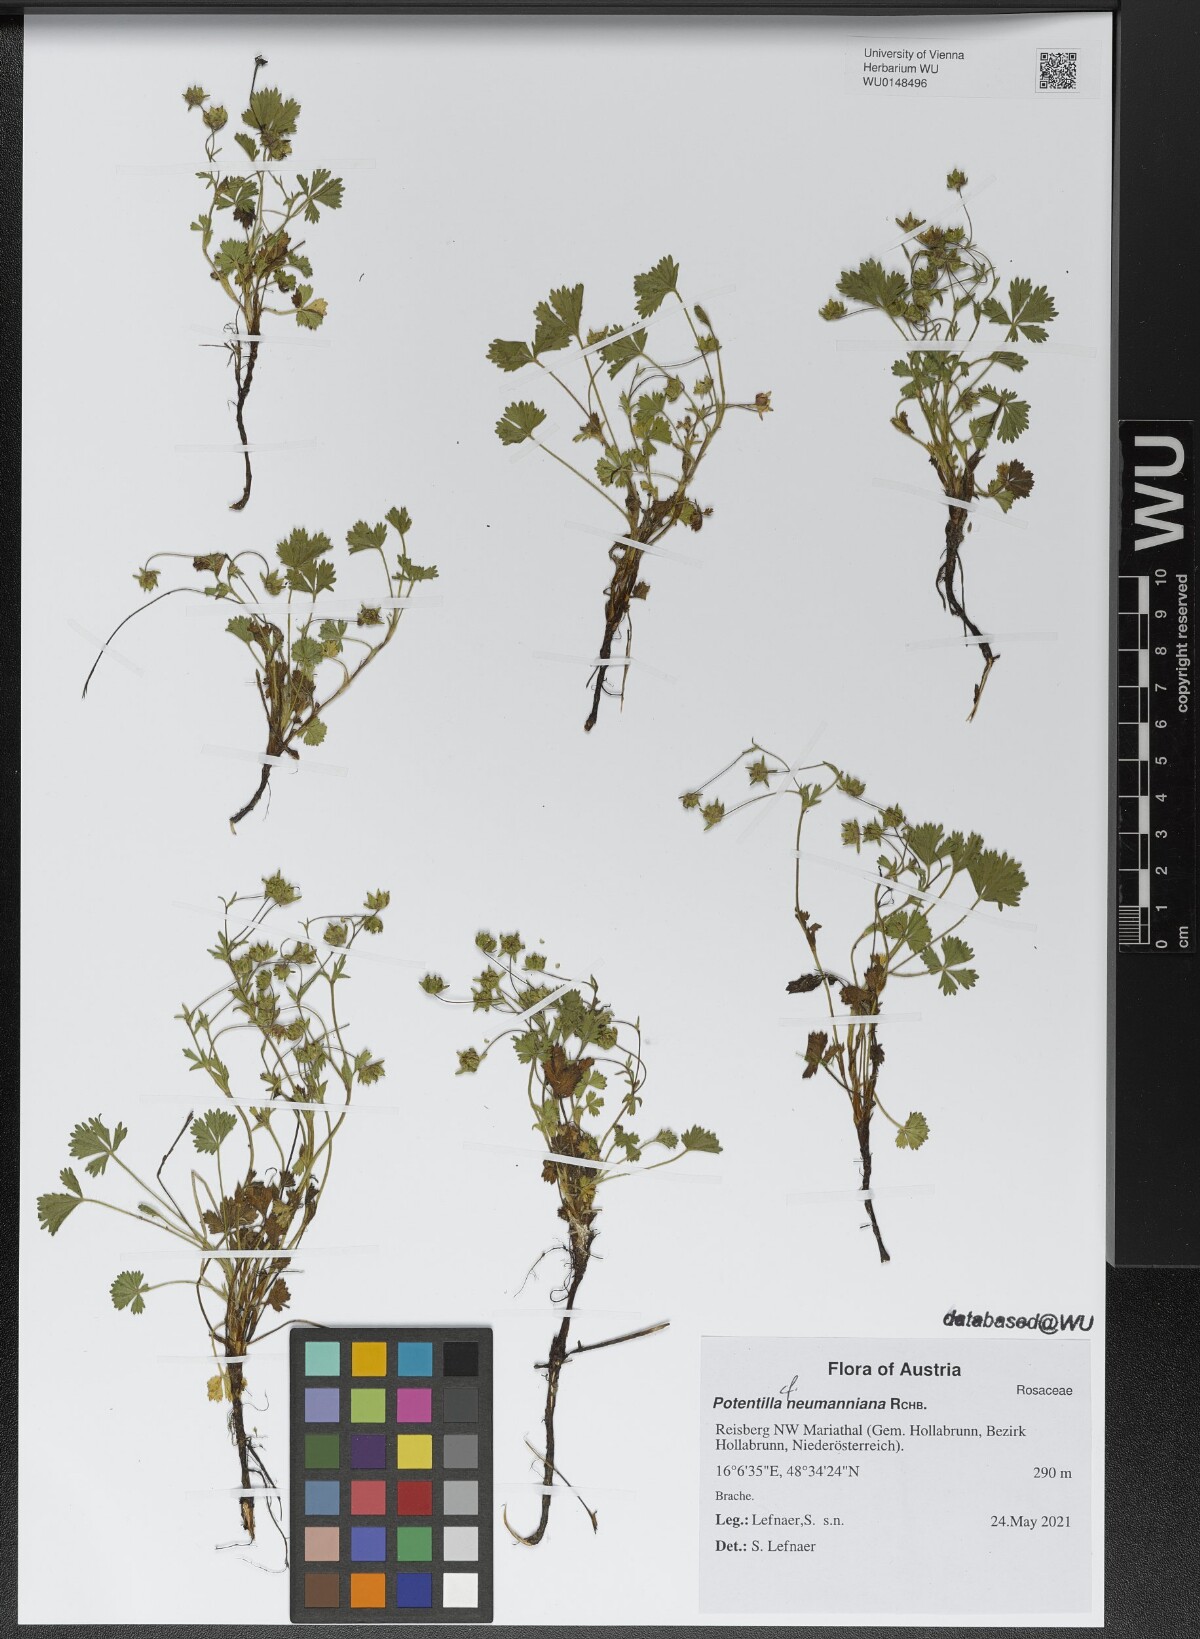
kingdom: Plantae
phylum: Tracheophyta
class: Magnoliopsida
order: Rosales
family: Rosaceae
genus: Potentilla
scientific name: Potentilla verna
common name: Spring cinquefoil
